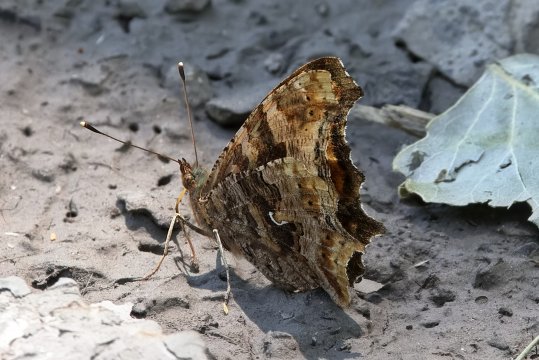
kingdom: Animalia
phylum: Arthropoda
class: Insecta
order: Lepidoptera
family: Nymphalidae
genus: Polygonia
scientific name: Polygonia comma
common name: Eastern Comma
